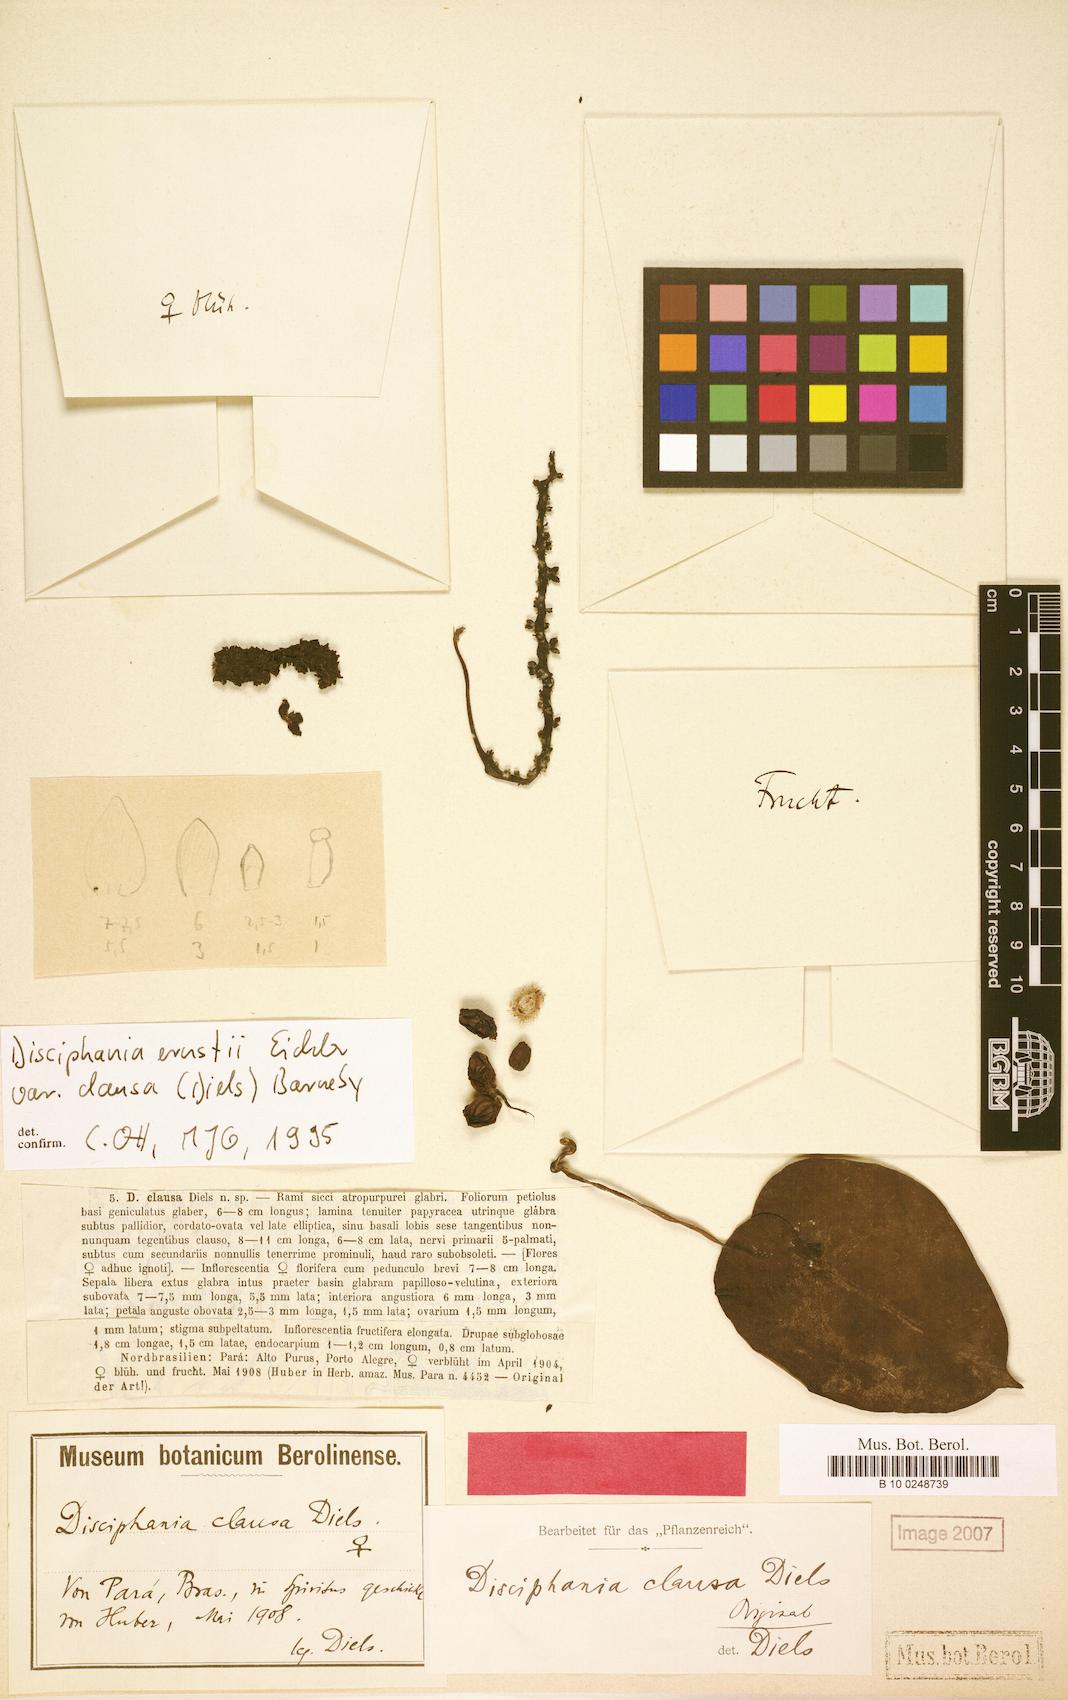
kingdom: Plantae
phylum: Tracheophyta
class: Magnoliopsida
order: Ranunculales
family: Menispermaceae
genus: Disciphania
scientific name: Disciphania ernstii
